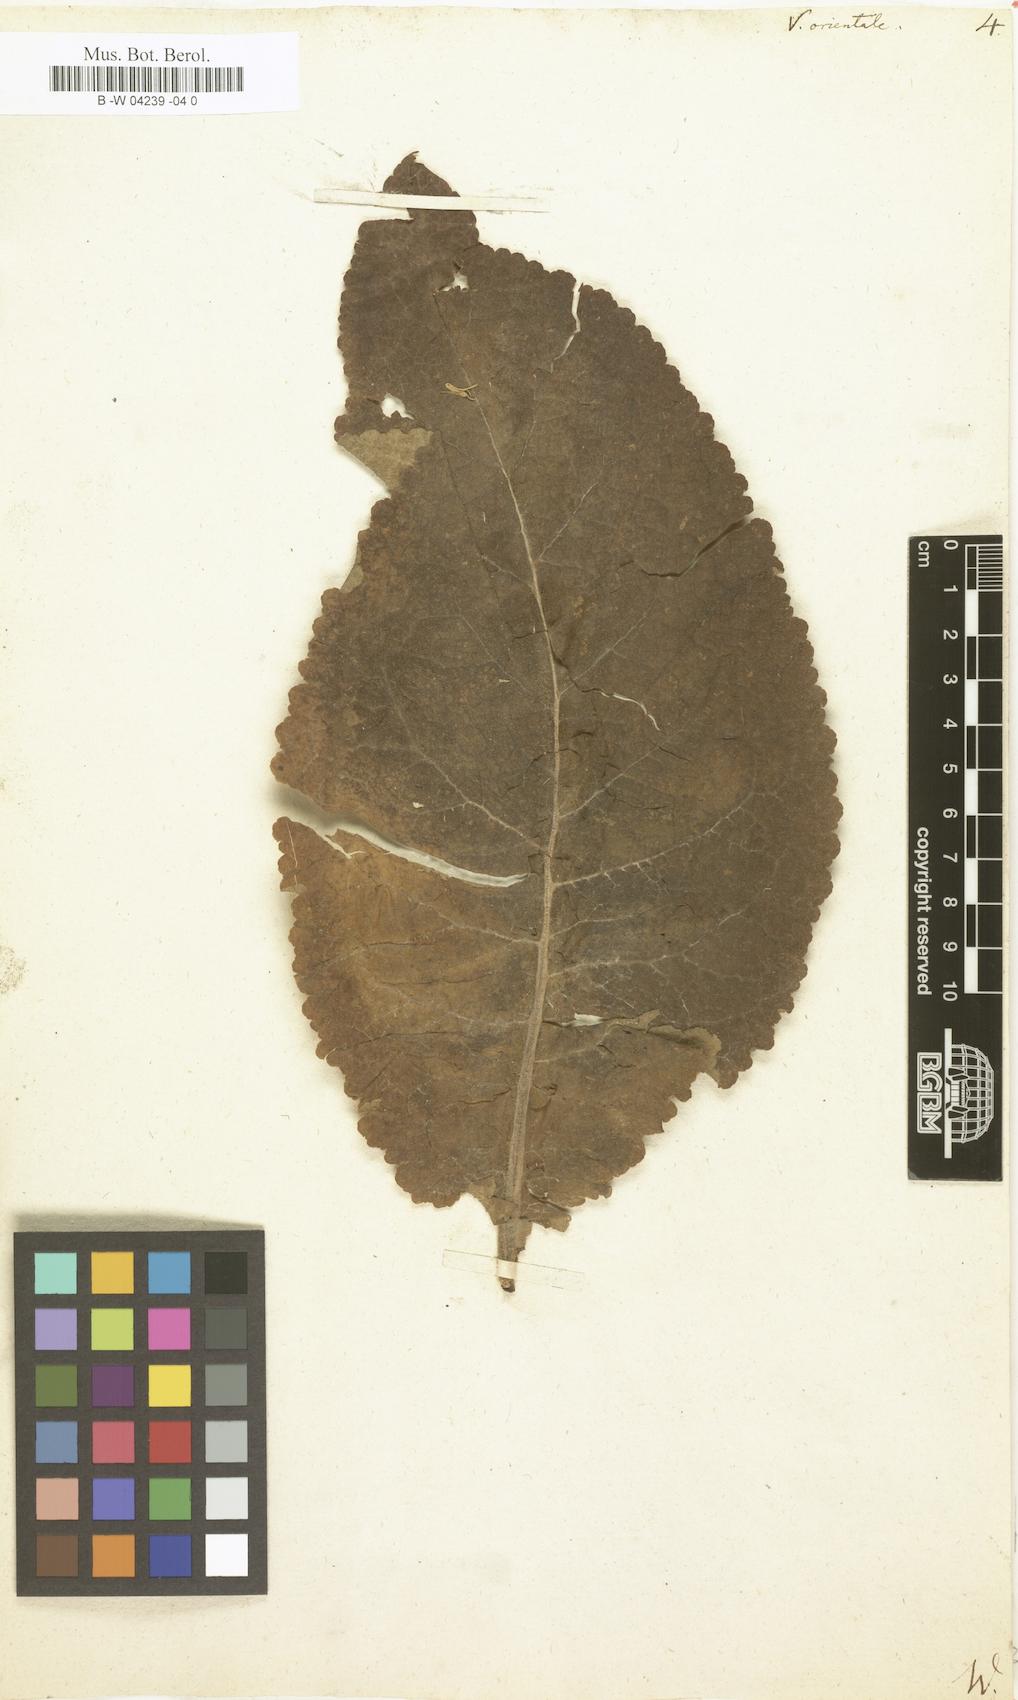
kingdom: Plantae
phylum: Tracheophyta
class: Magnoliopsida
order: Lamiales
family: Scrophulariaceae
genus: Verbascum
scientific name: Verbascum orientale
